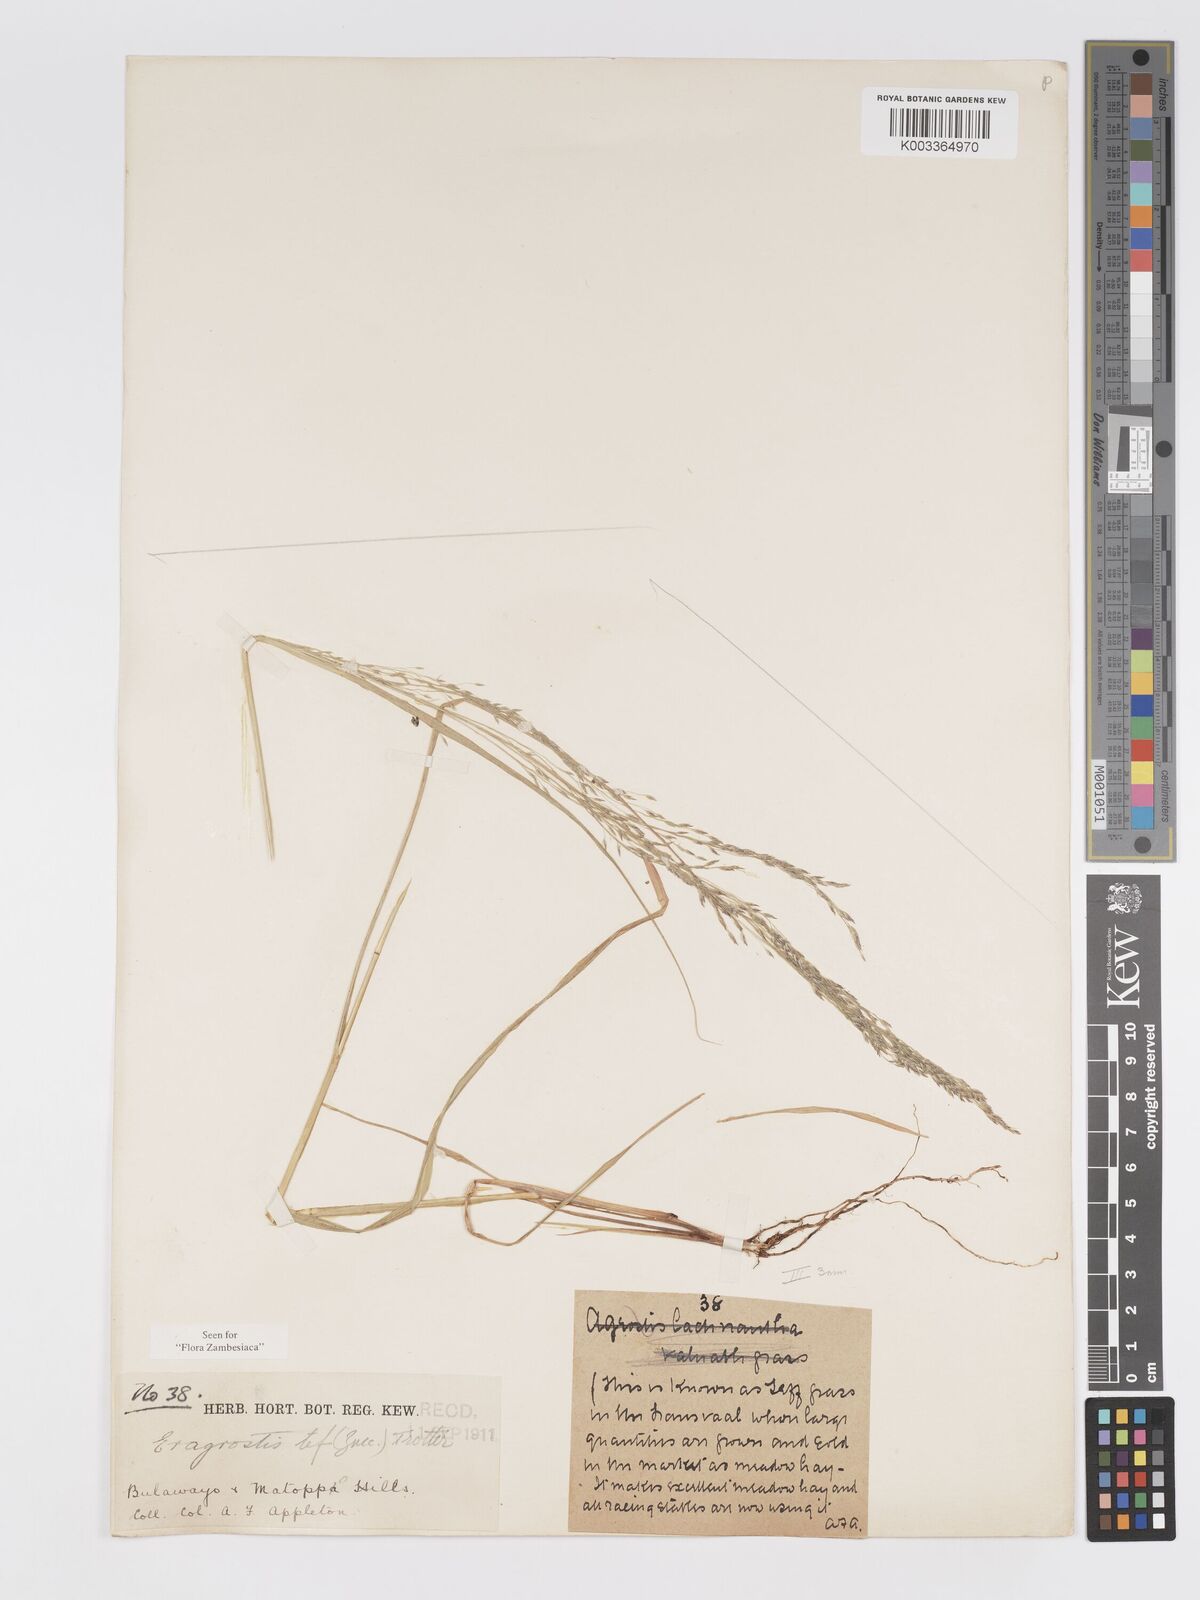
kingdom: Plantae
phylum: Tracheophyta
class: Liliopsida
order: Poales
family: Poaceae
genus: Eragrostis
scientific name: Eragrostis tef
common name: Teff
